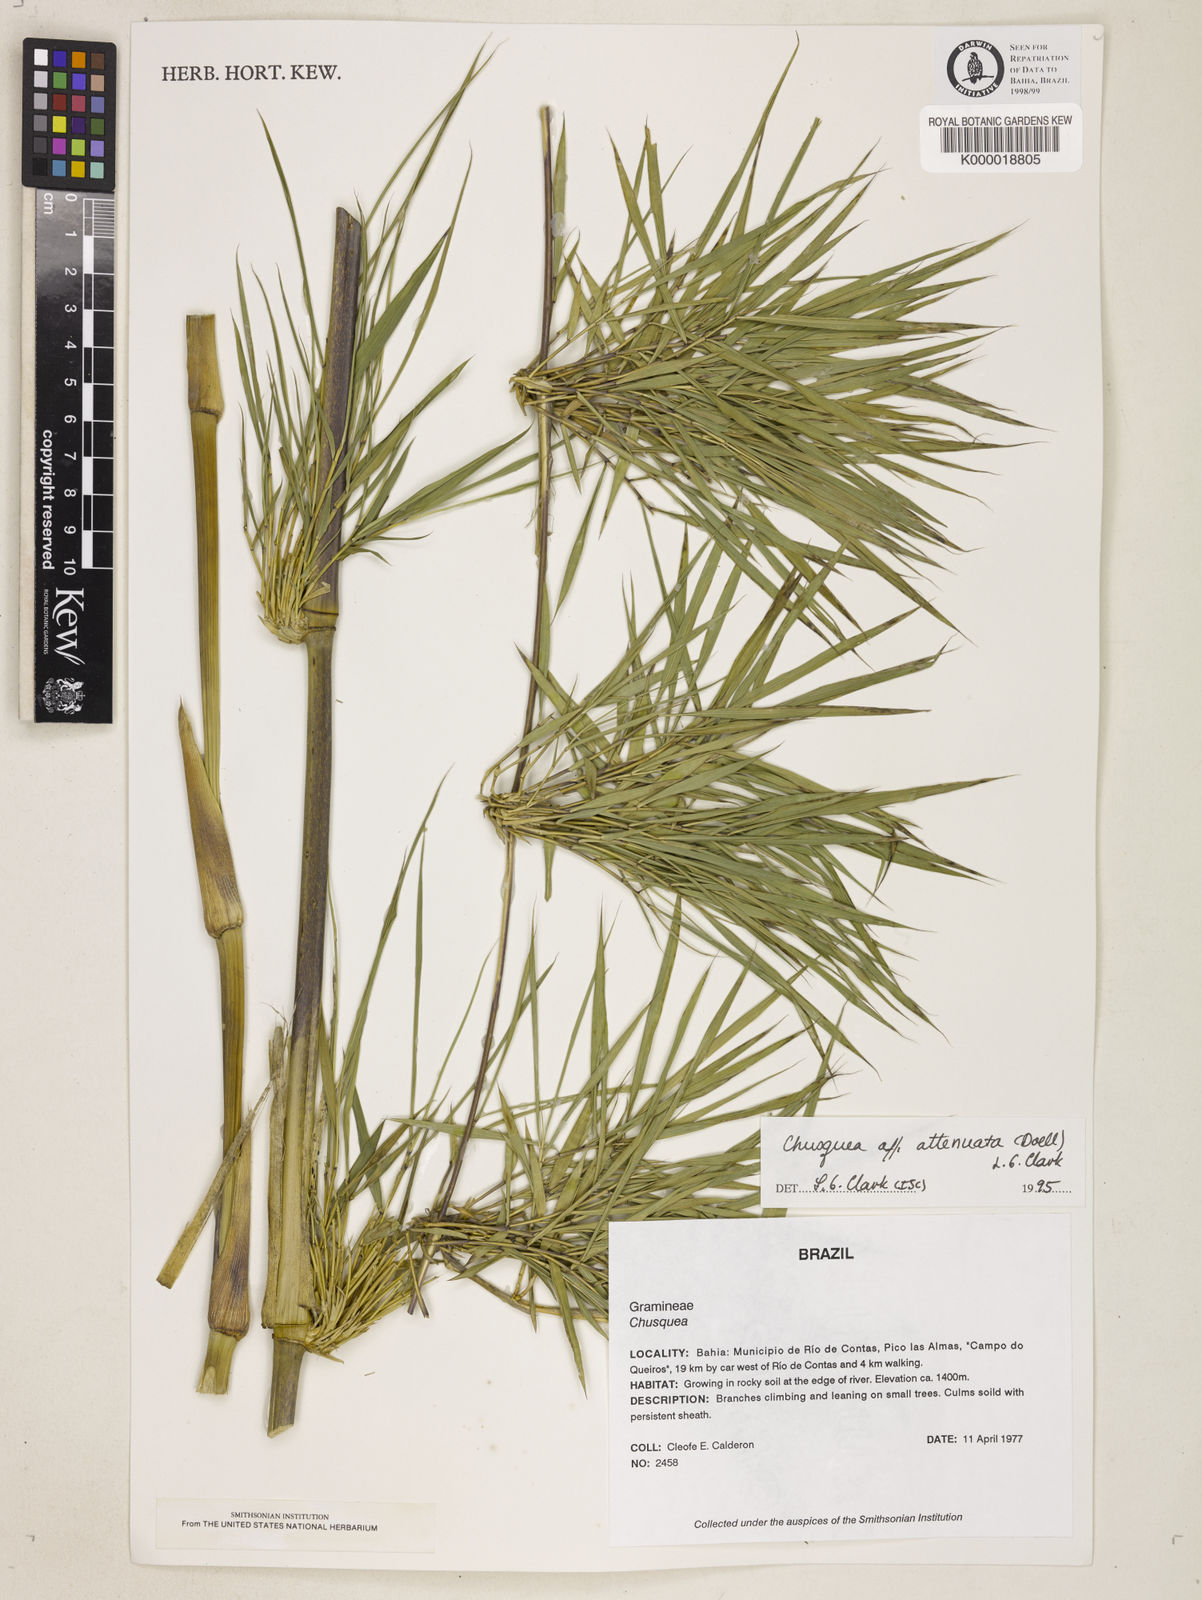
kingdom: Plantae
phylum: Tracheophyta
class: Liliopsida
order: Poales
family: Poaceae
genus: Chusquea
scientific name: Chusquea attenuata
